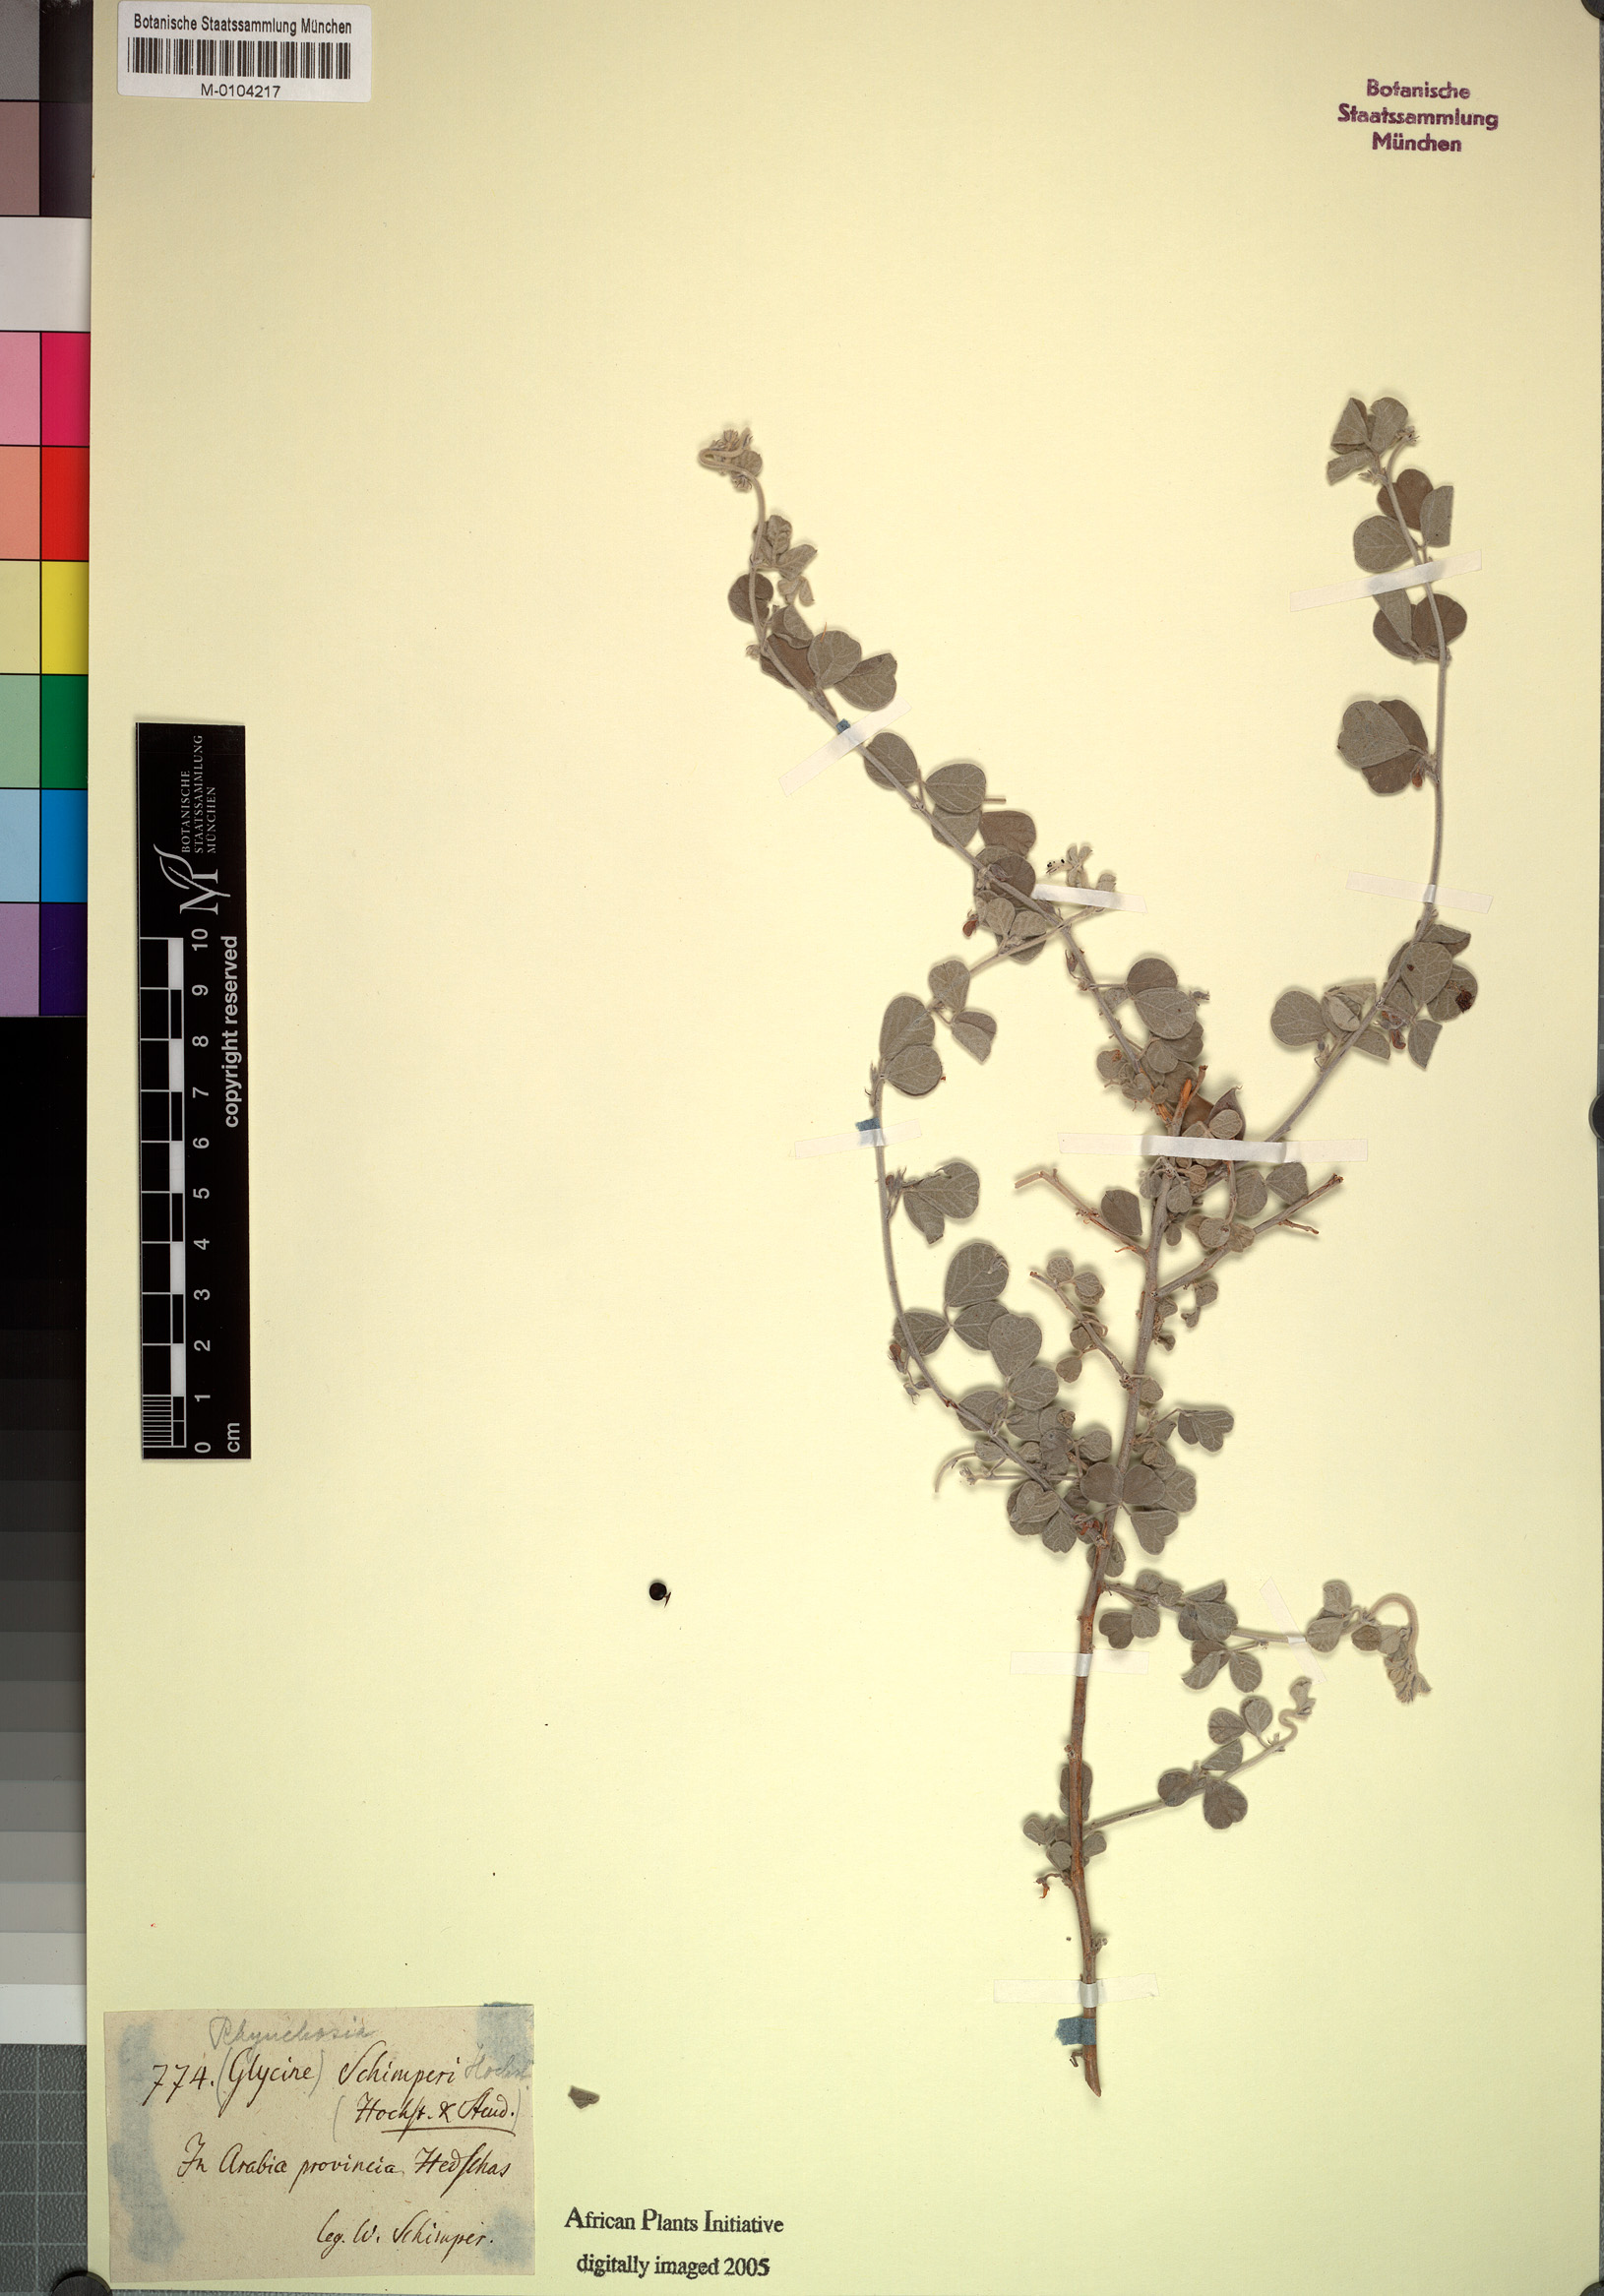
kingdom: Plantae
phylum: Tracheophyta
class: Magnoliopsida
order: Fabales
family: Fabaceae
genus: Rhynchosia
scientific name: Rhynchosia schimperi
